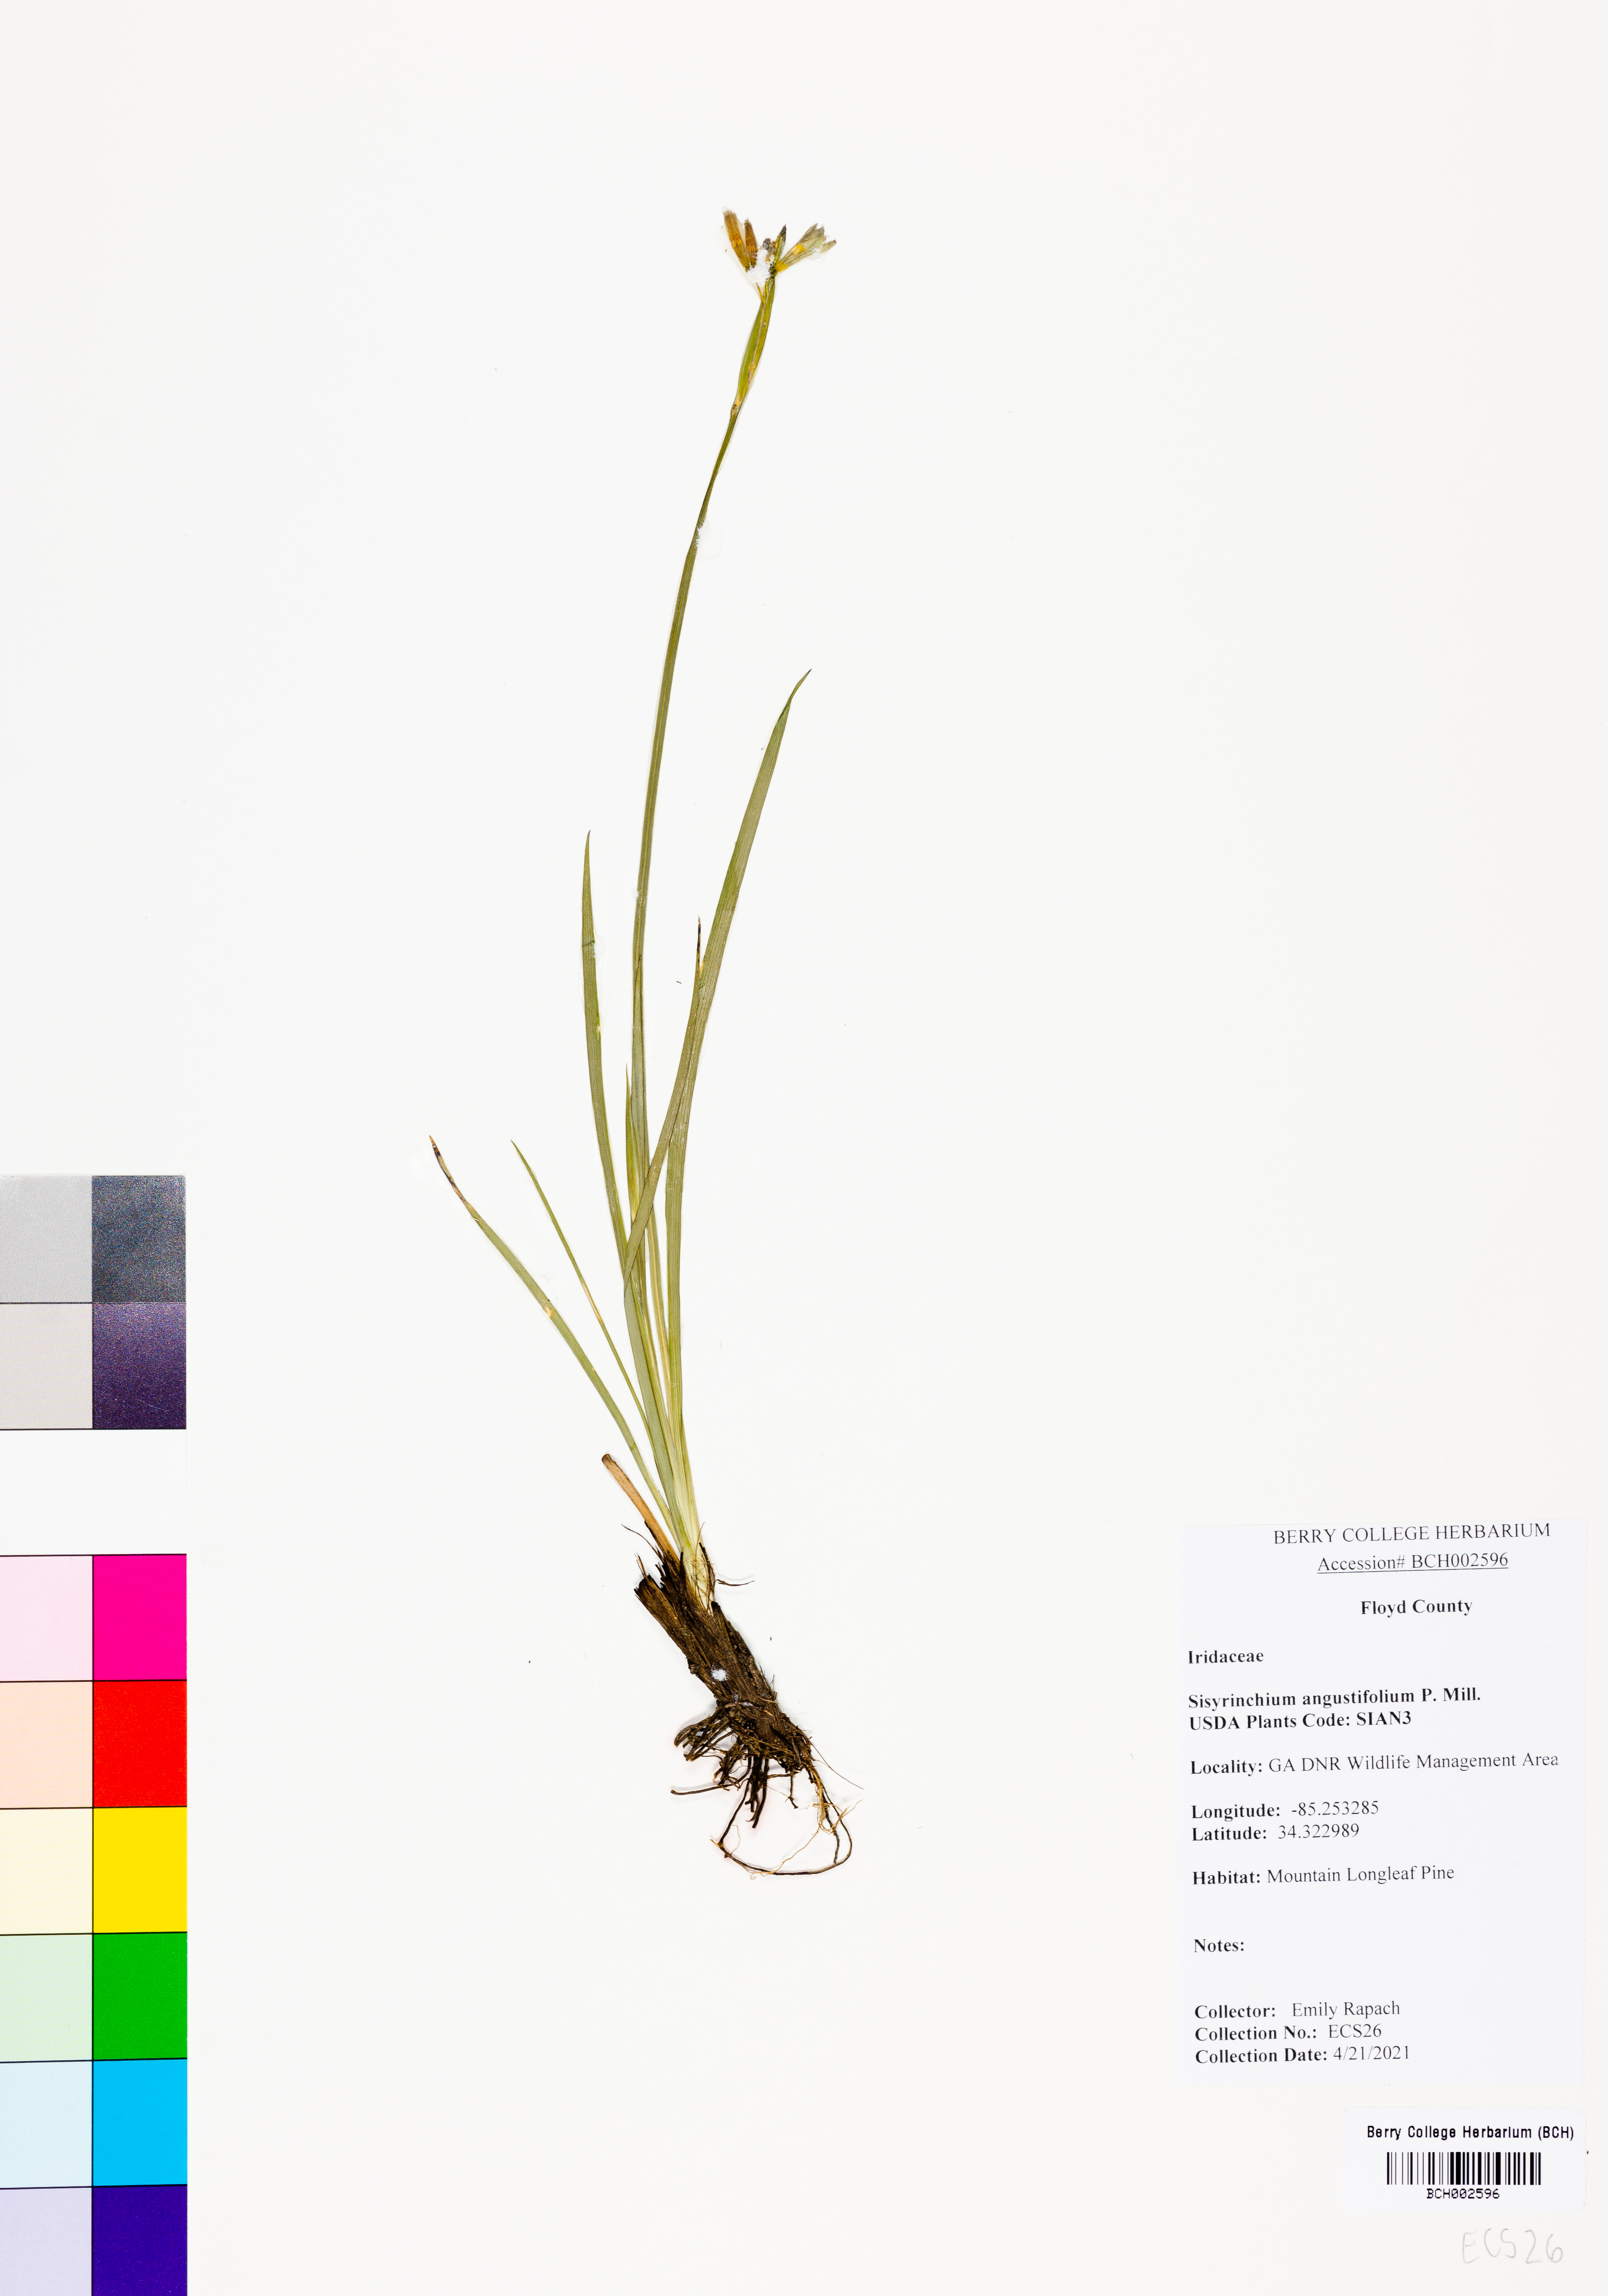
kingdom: Plantae
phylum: Tracheophyta
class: Liliopsida
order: Asparagales
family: Iridaceae
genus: Sisyrinchium
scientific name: Sisyrinchium angustifolium
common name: Narrow-leaf blue-eyed-grass
